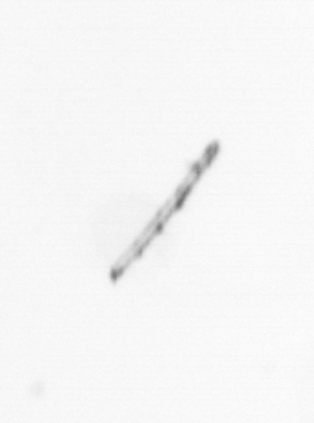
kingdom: Chromista
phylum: Ochrophyta
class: Bacillariophyceae
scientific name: Bacillariophyceae
